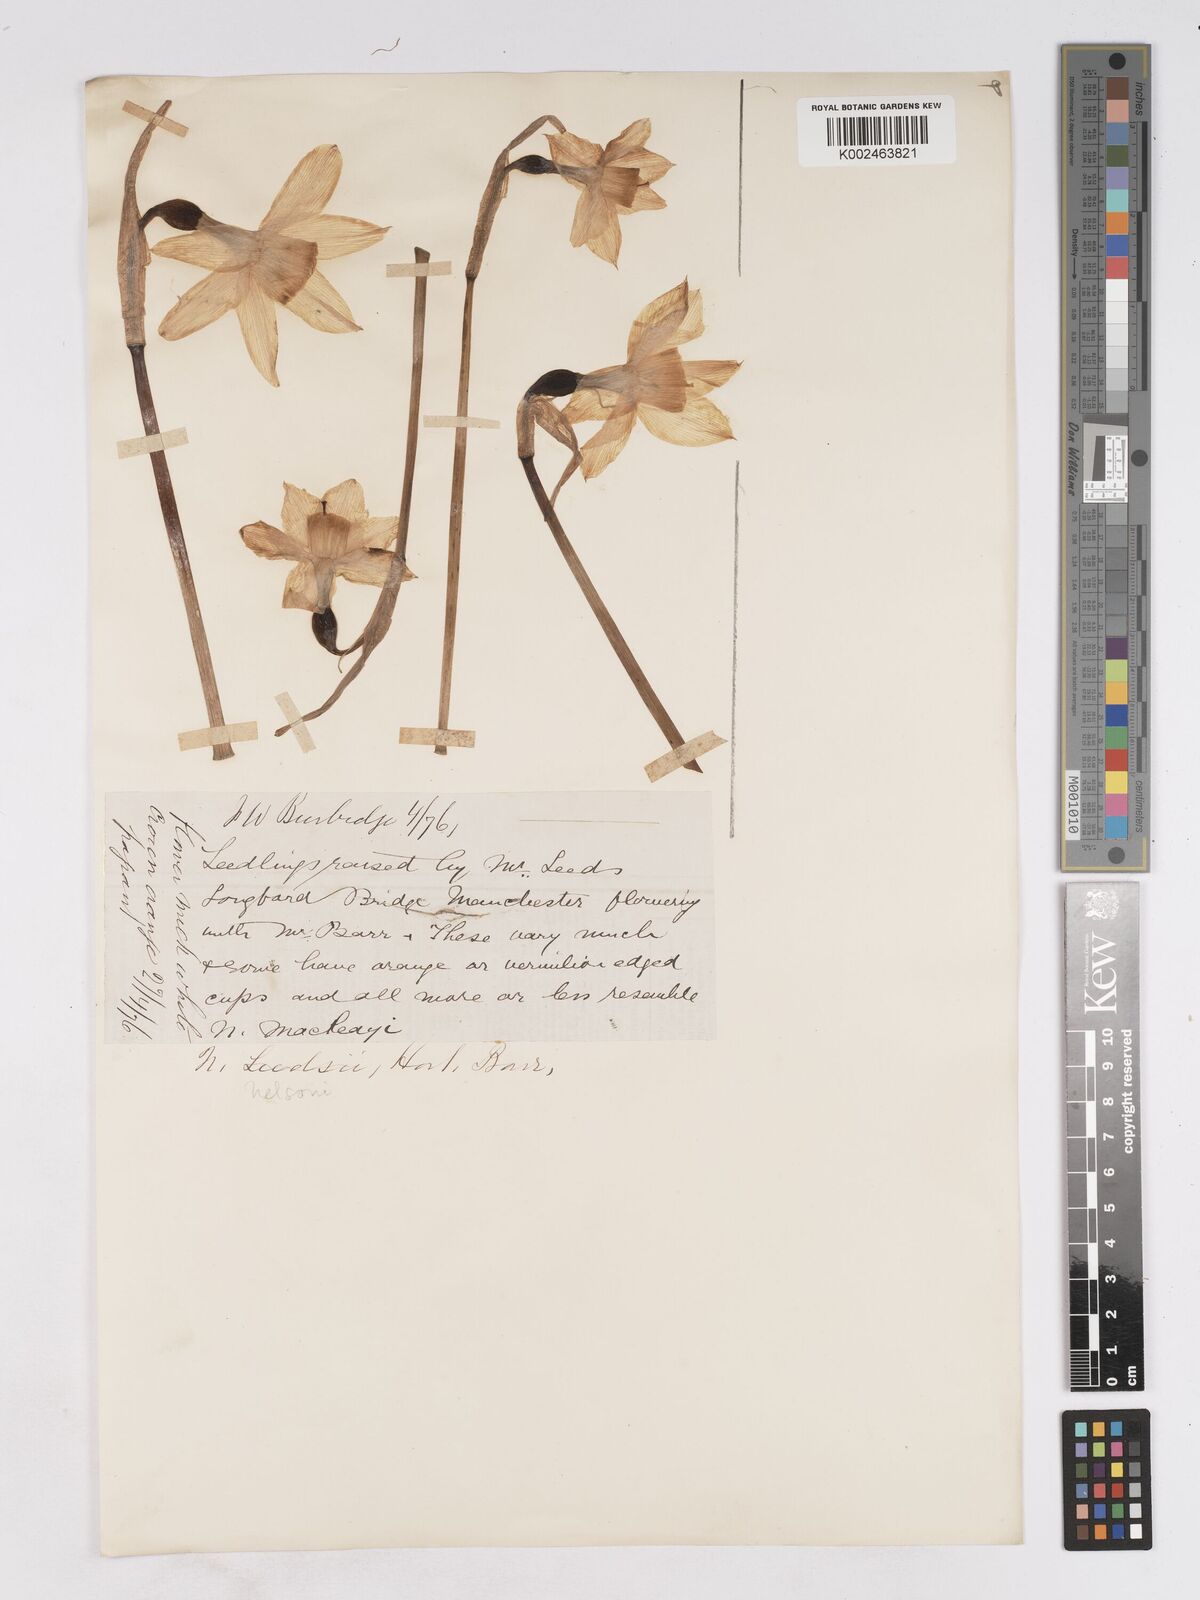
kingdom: Plantae
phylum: Tracheophyta
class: Liliopsida
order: Asparagales
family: Amaryllidaceae
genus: Narcissus
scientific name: Narcissus leedsii
